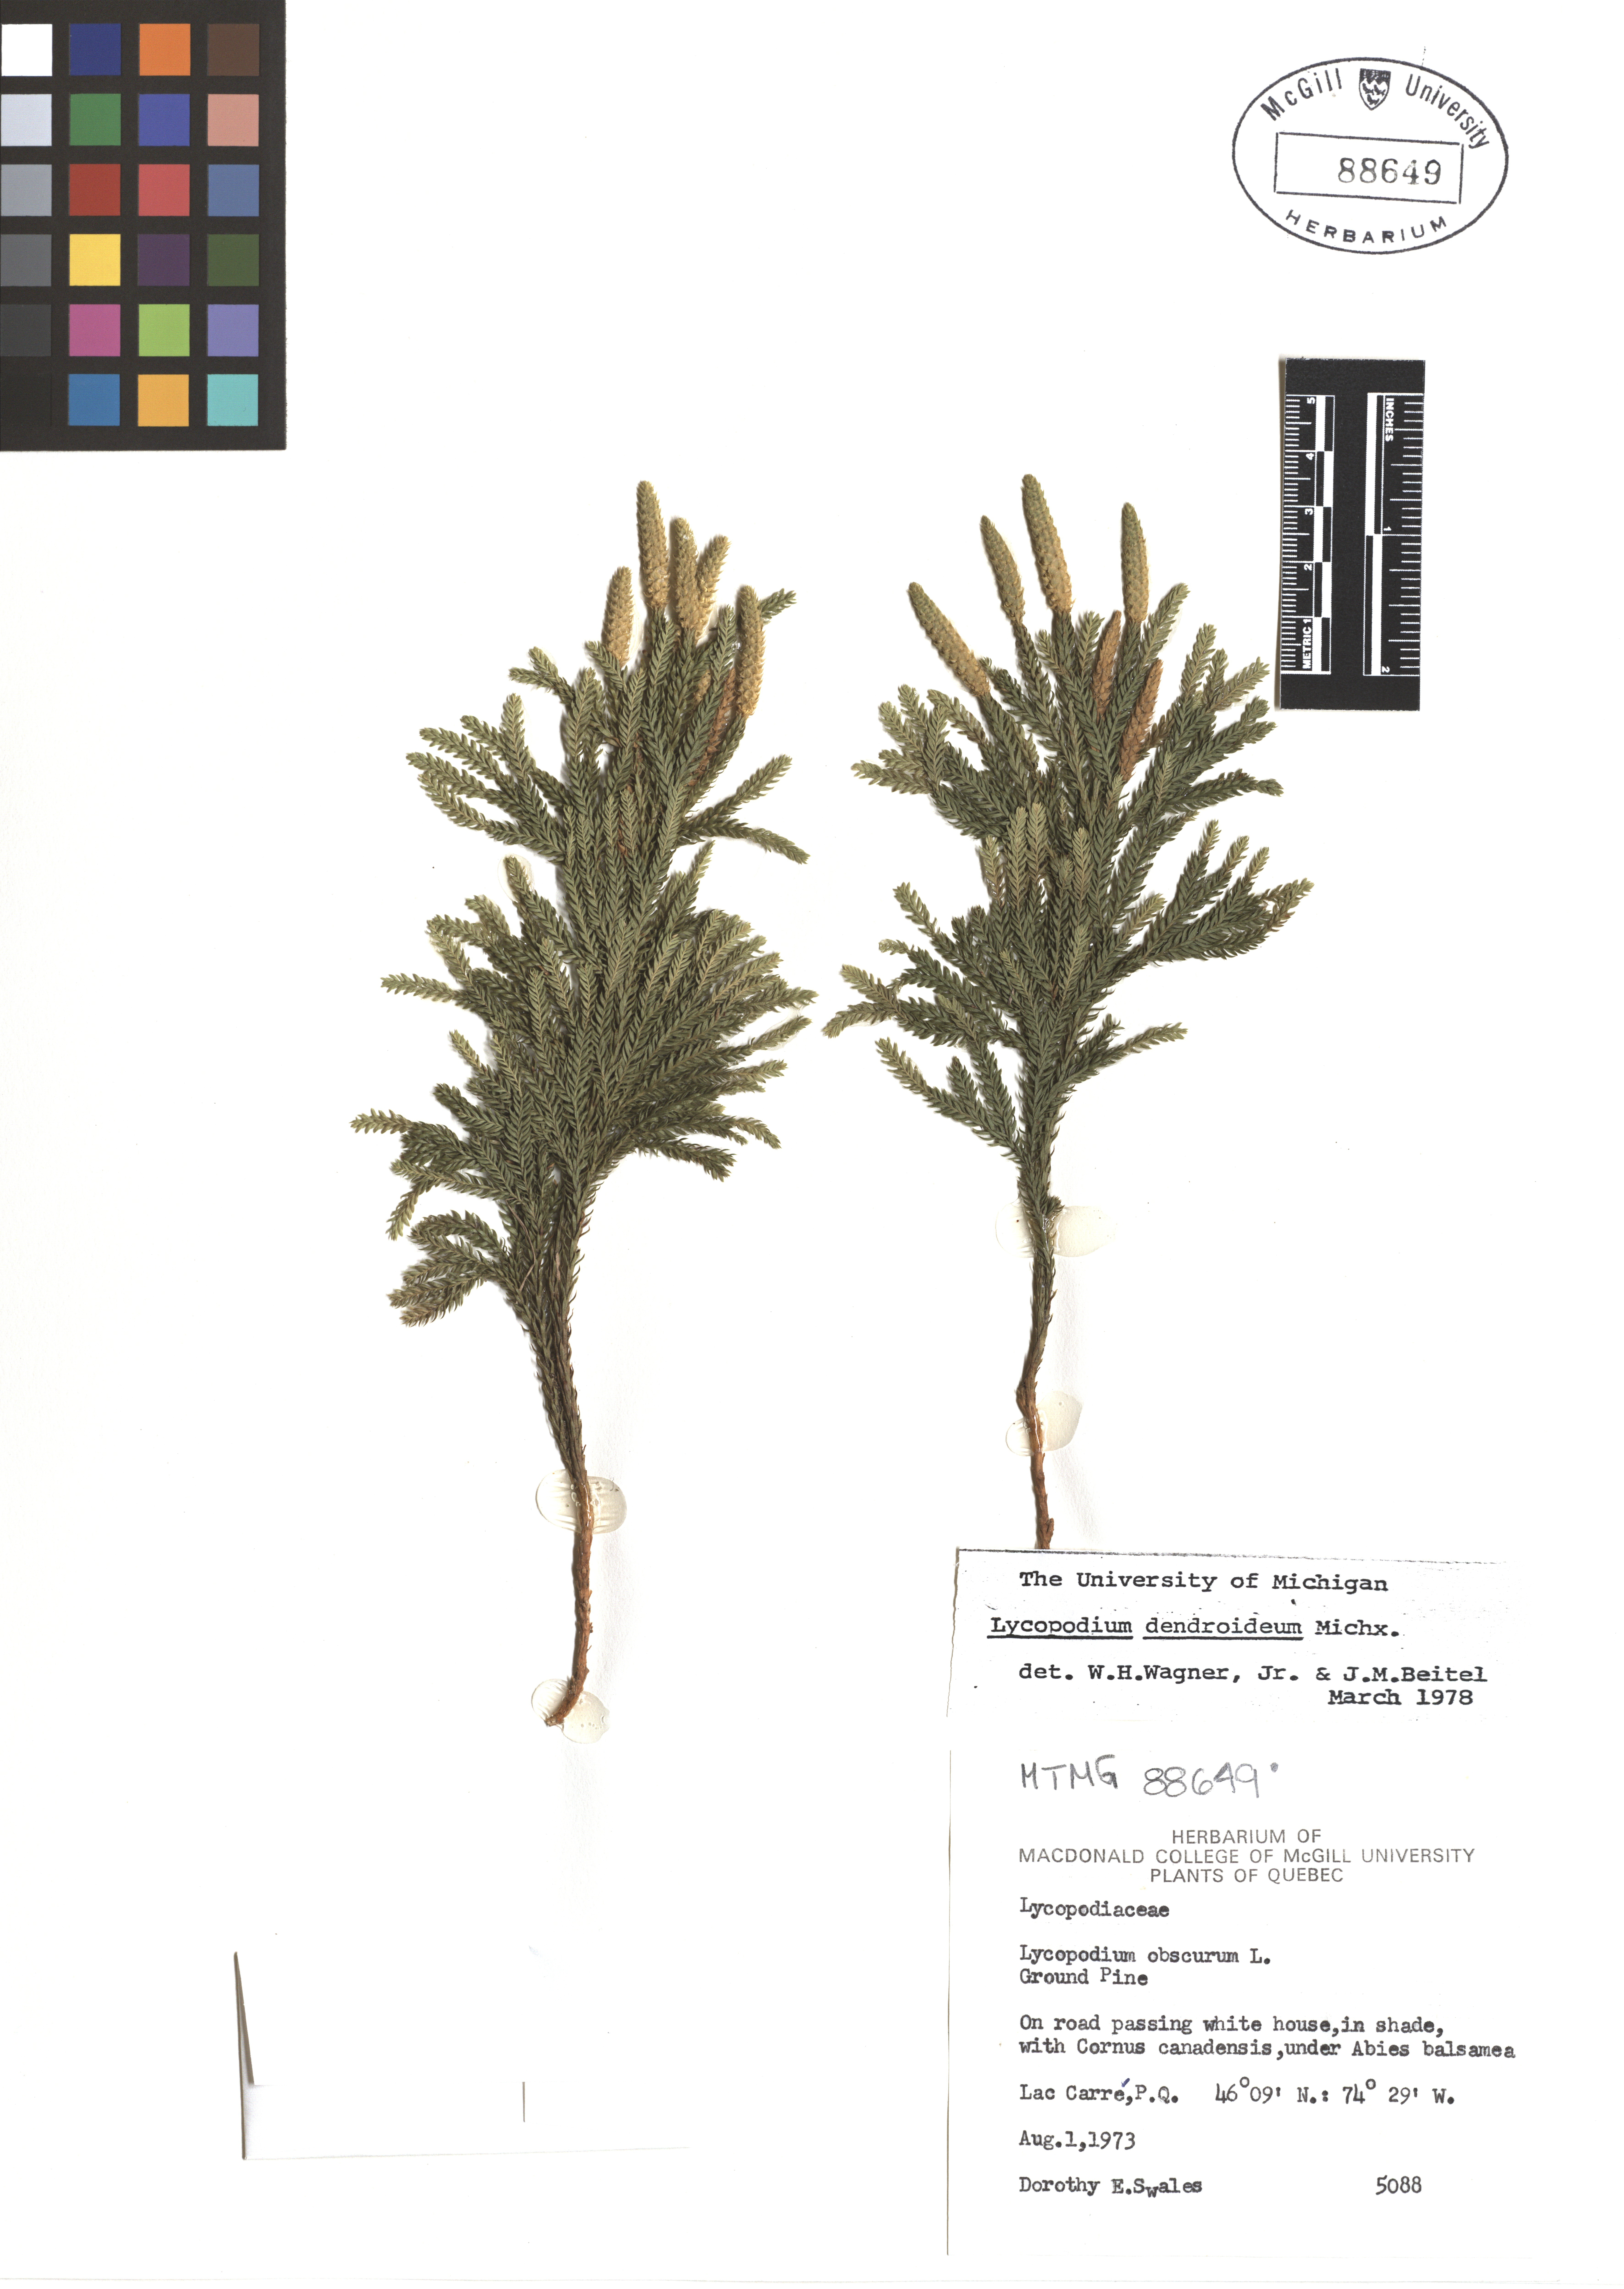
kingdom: Plantae
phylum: Tracheophyta
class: Lycopodiopsida
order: Lycopodiales
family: Lycopodiaceae
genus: Dendrolycopodium
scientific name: Dendrolycopodium dendroideum
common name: Northern tree-clubmoss
